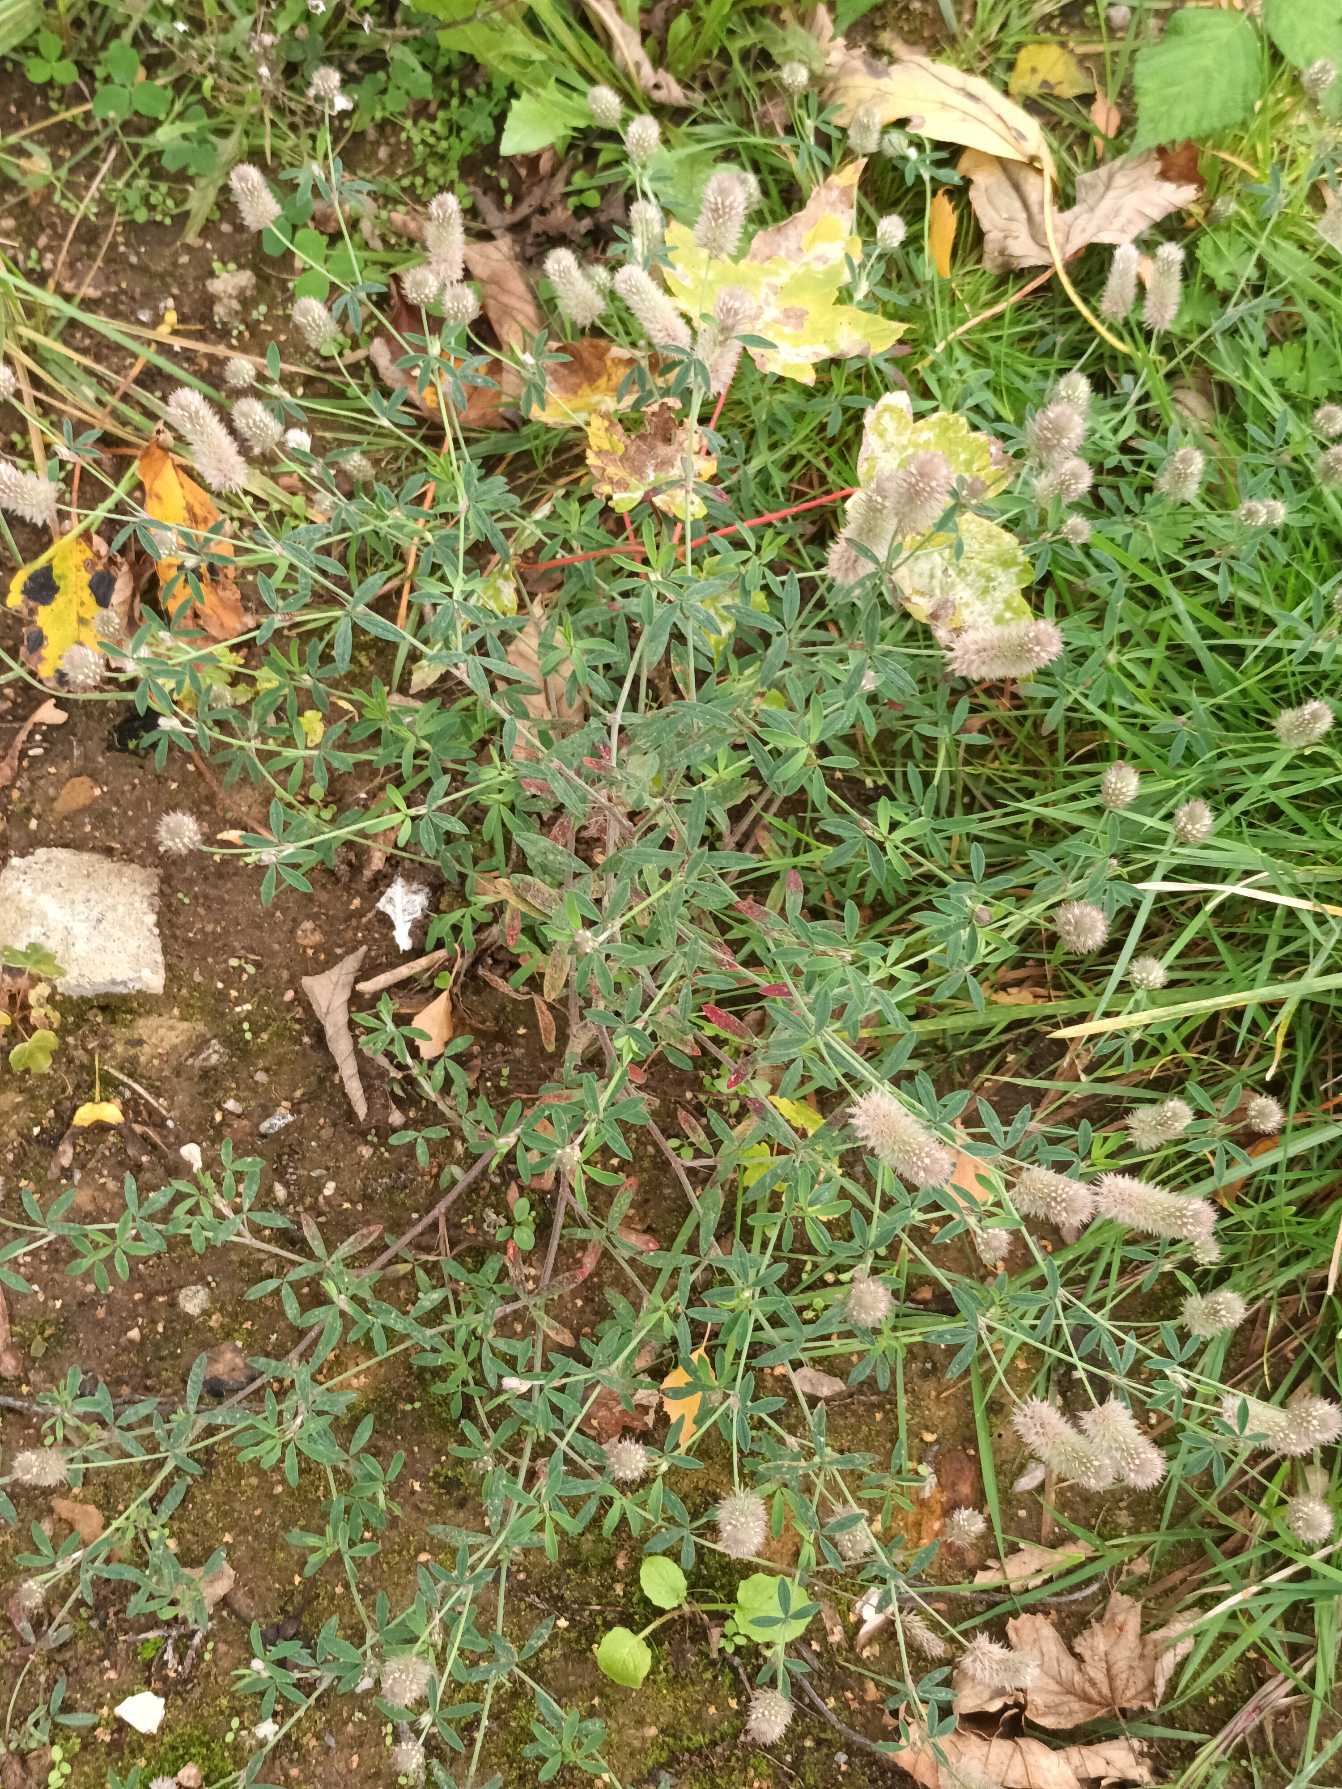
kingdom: Plantae
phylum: Tracheophyta
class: Magnoliopsida
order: Fabales
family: Fabaceae
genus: Trifolium
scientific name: Trifolium arvense
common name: Hare-kløver
